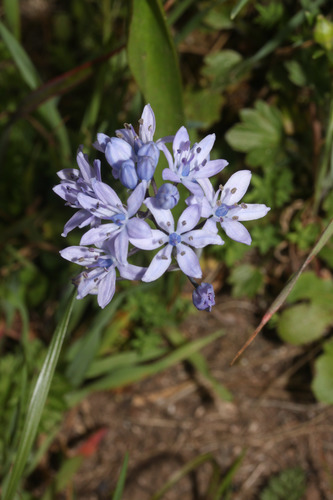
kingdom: Plantae
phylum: Tracheophyta
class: Liliopsida
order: Asparagales
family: Asparagaceae
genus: Scilla
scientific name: Scilla monophyllos
